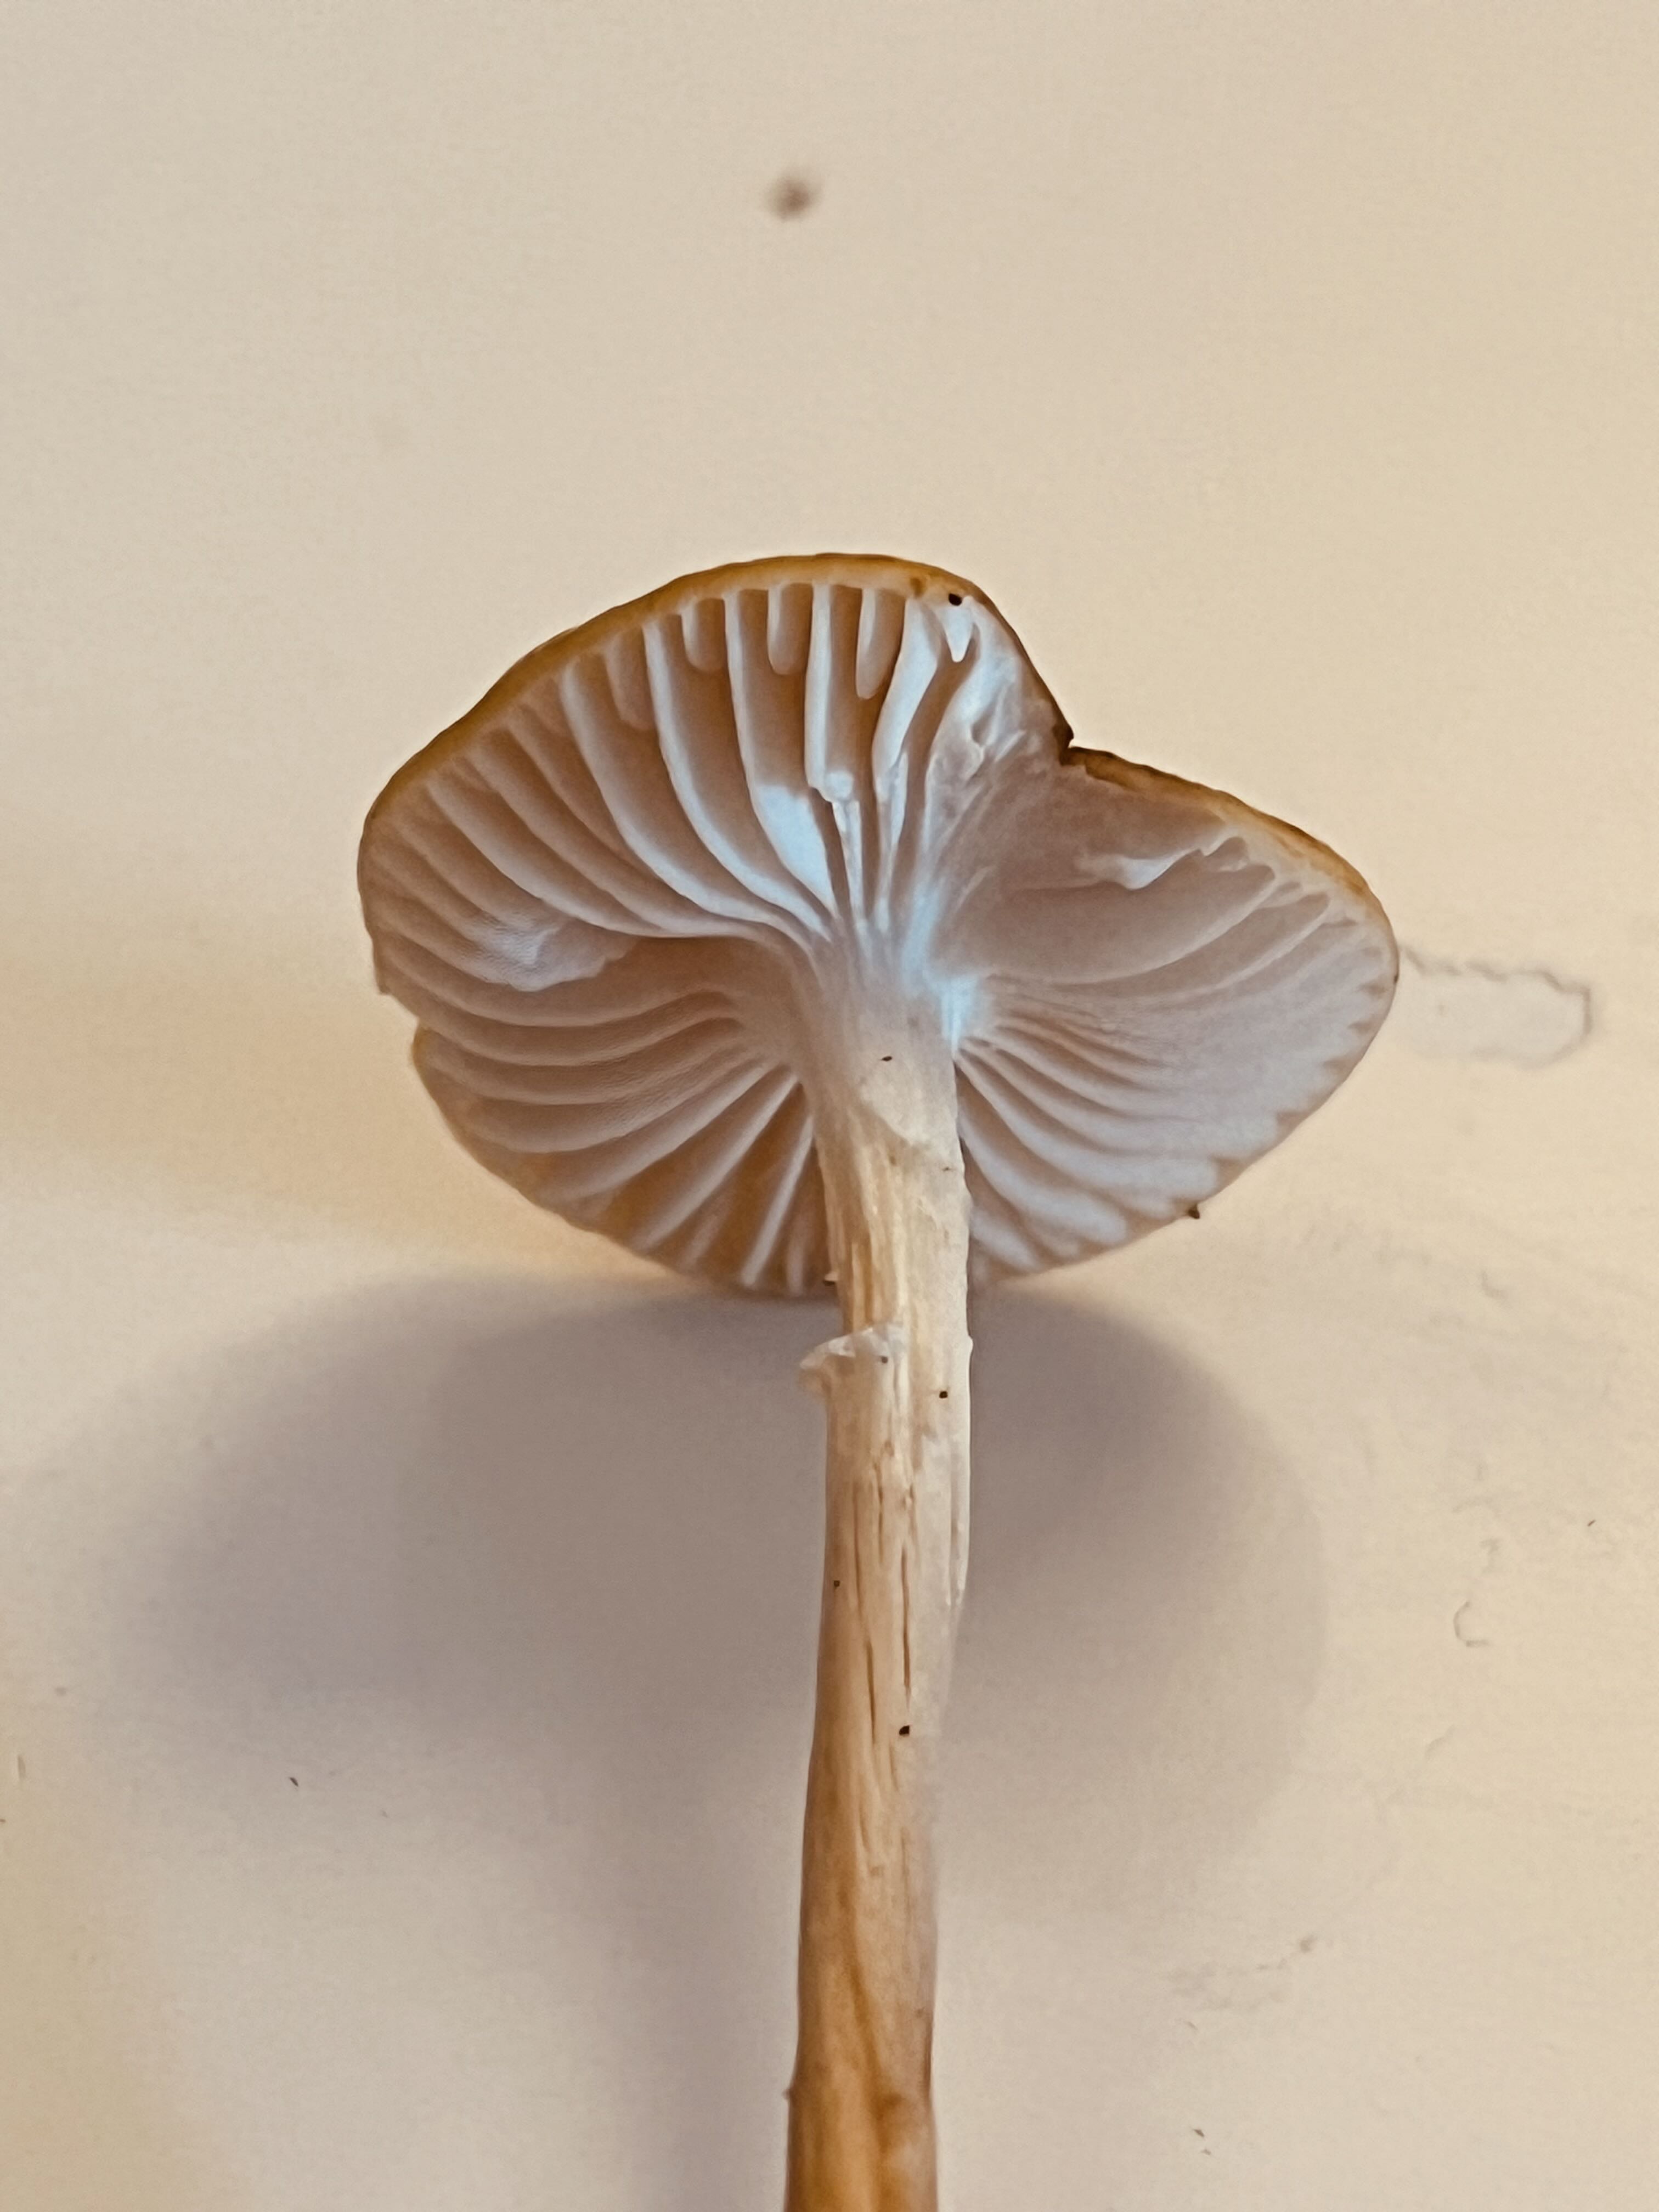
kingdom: Fungi
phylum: Basidiomycota
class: Agaricomycetes
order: Agaricales
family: Physalacriaceae
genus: Hymenopellis
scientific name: Hymenopellis radicata
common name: almindelig pælerodshat
